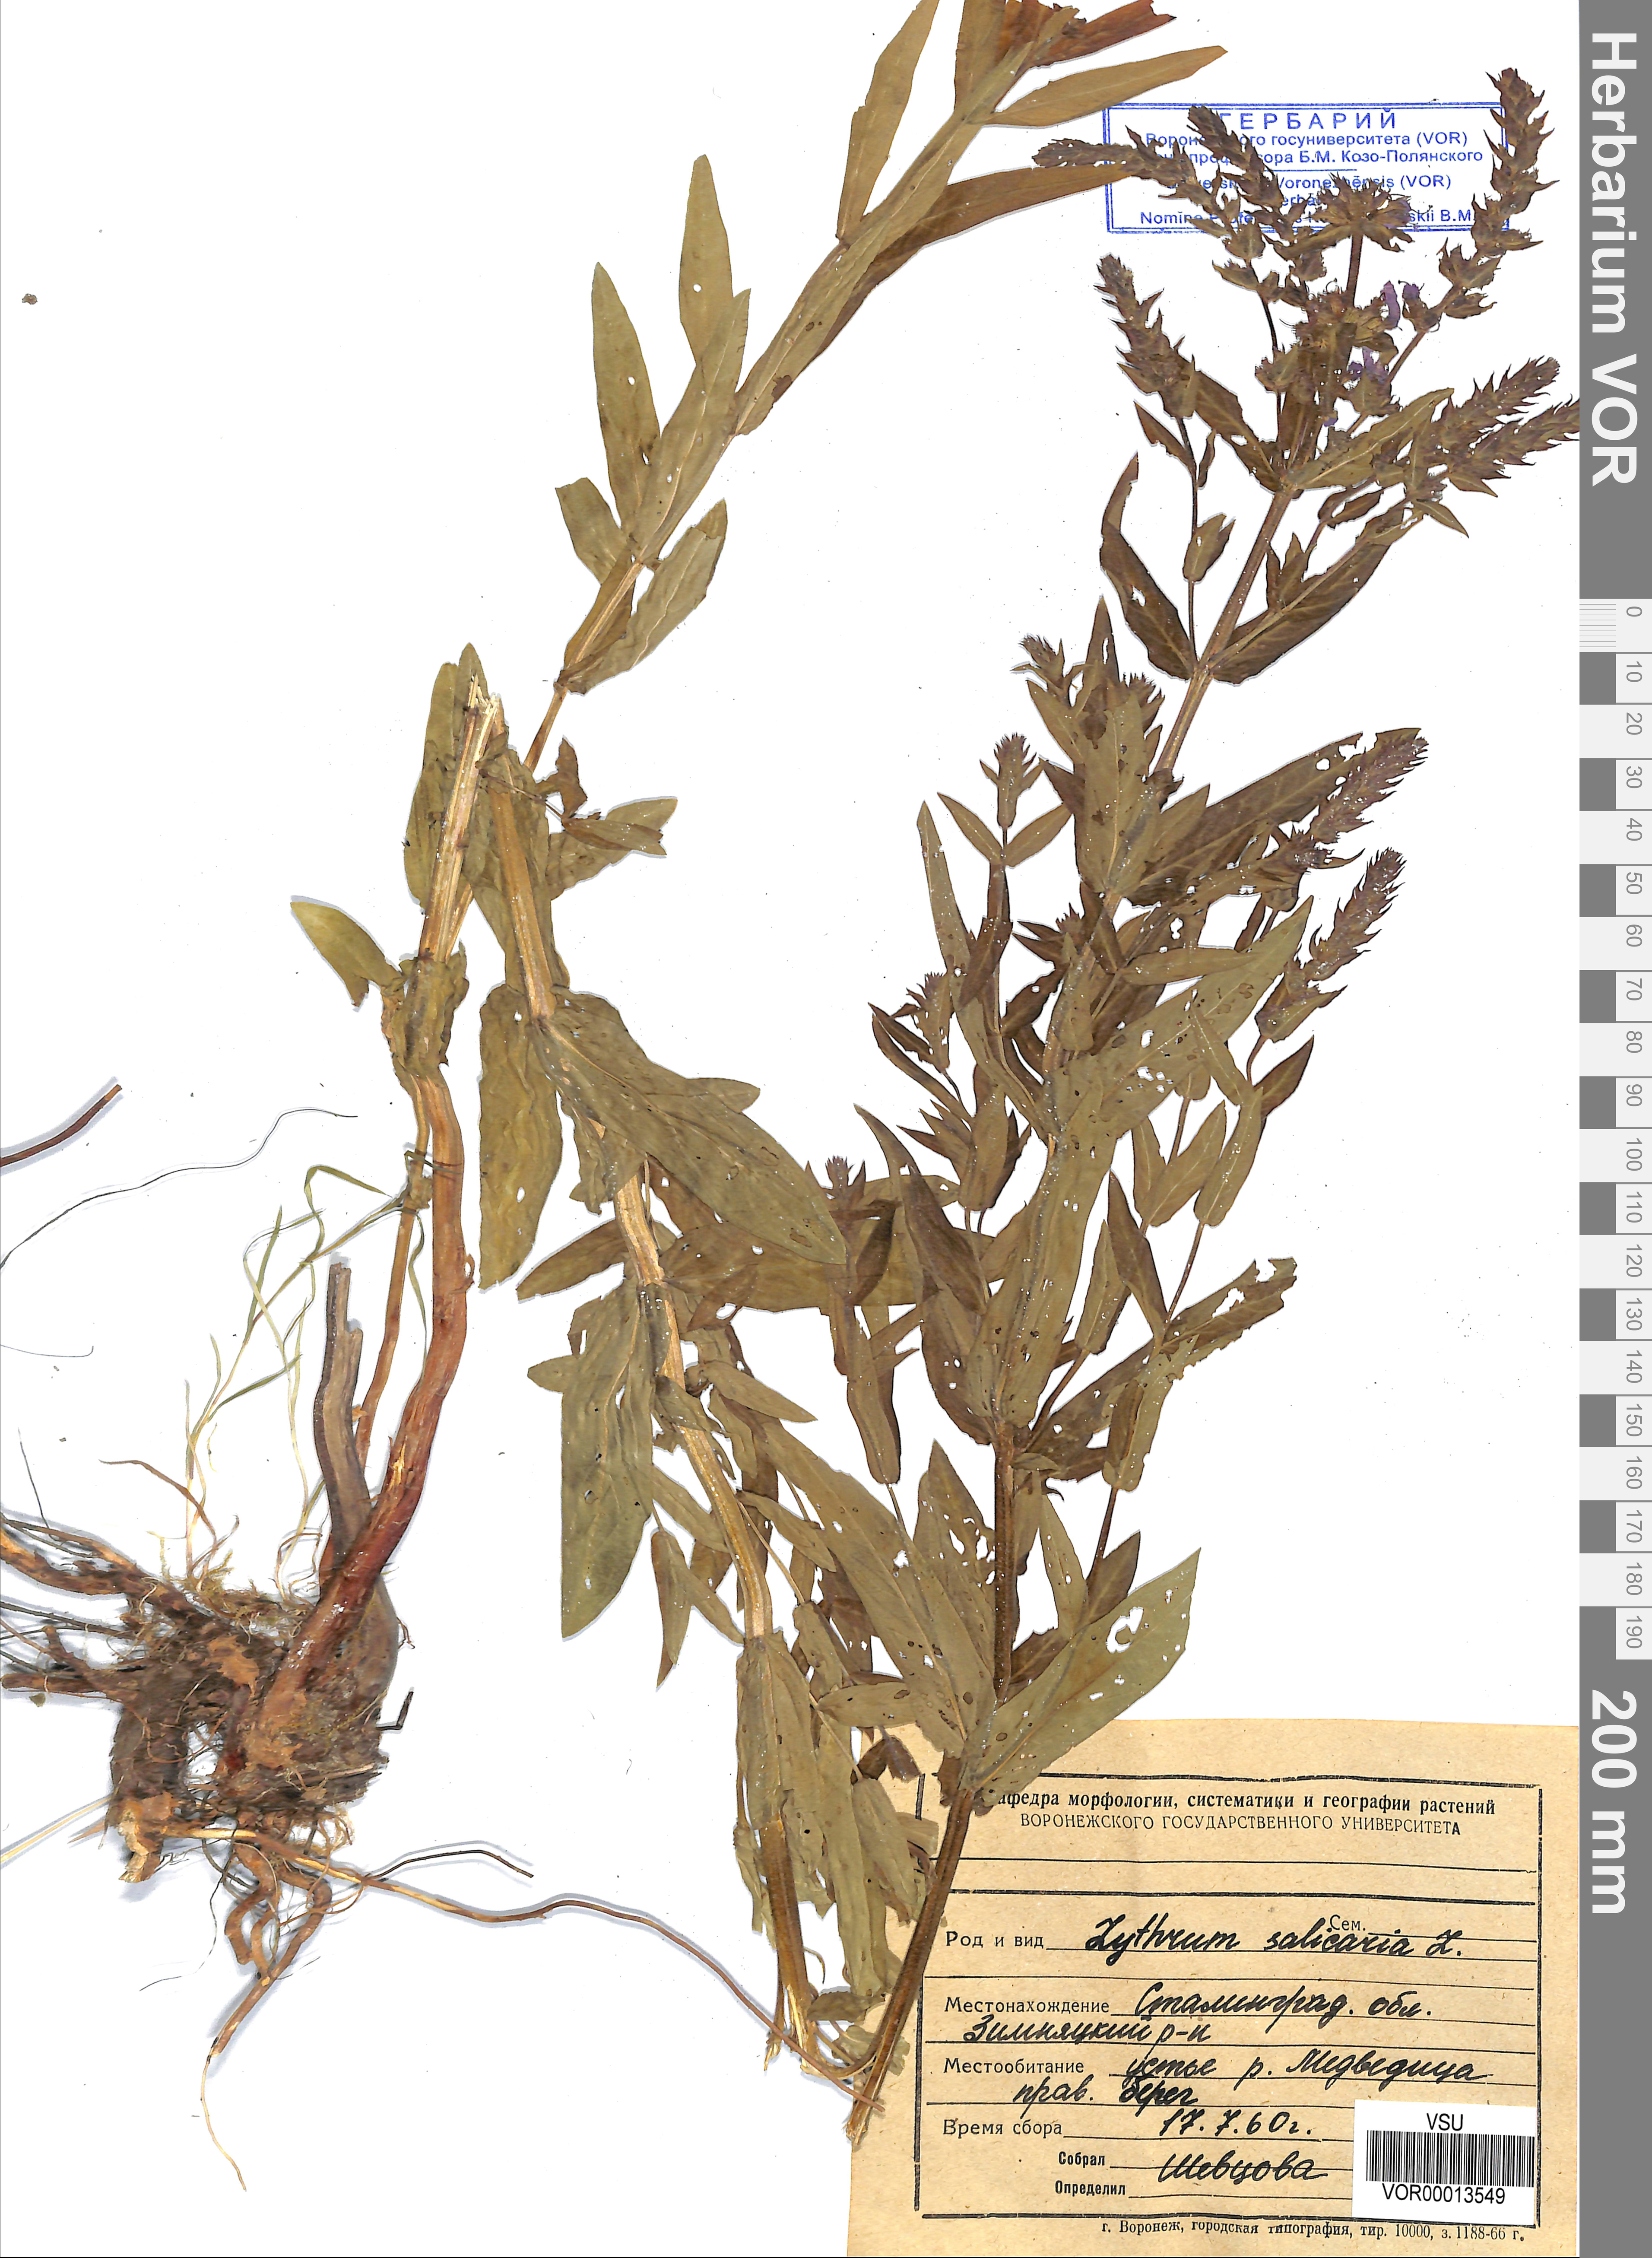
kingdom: Plantae
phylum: Tracheophyta
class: Magnoliopsida
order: Myrtales
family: Lythraceae
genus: Lythrum
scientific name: Lythrum salicaria
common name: Purple loosestrife
